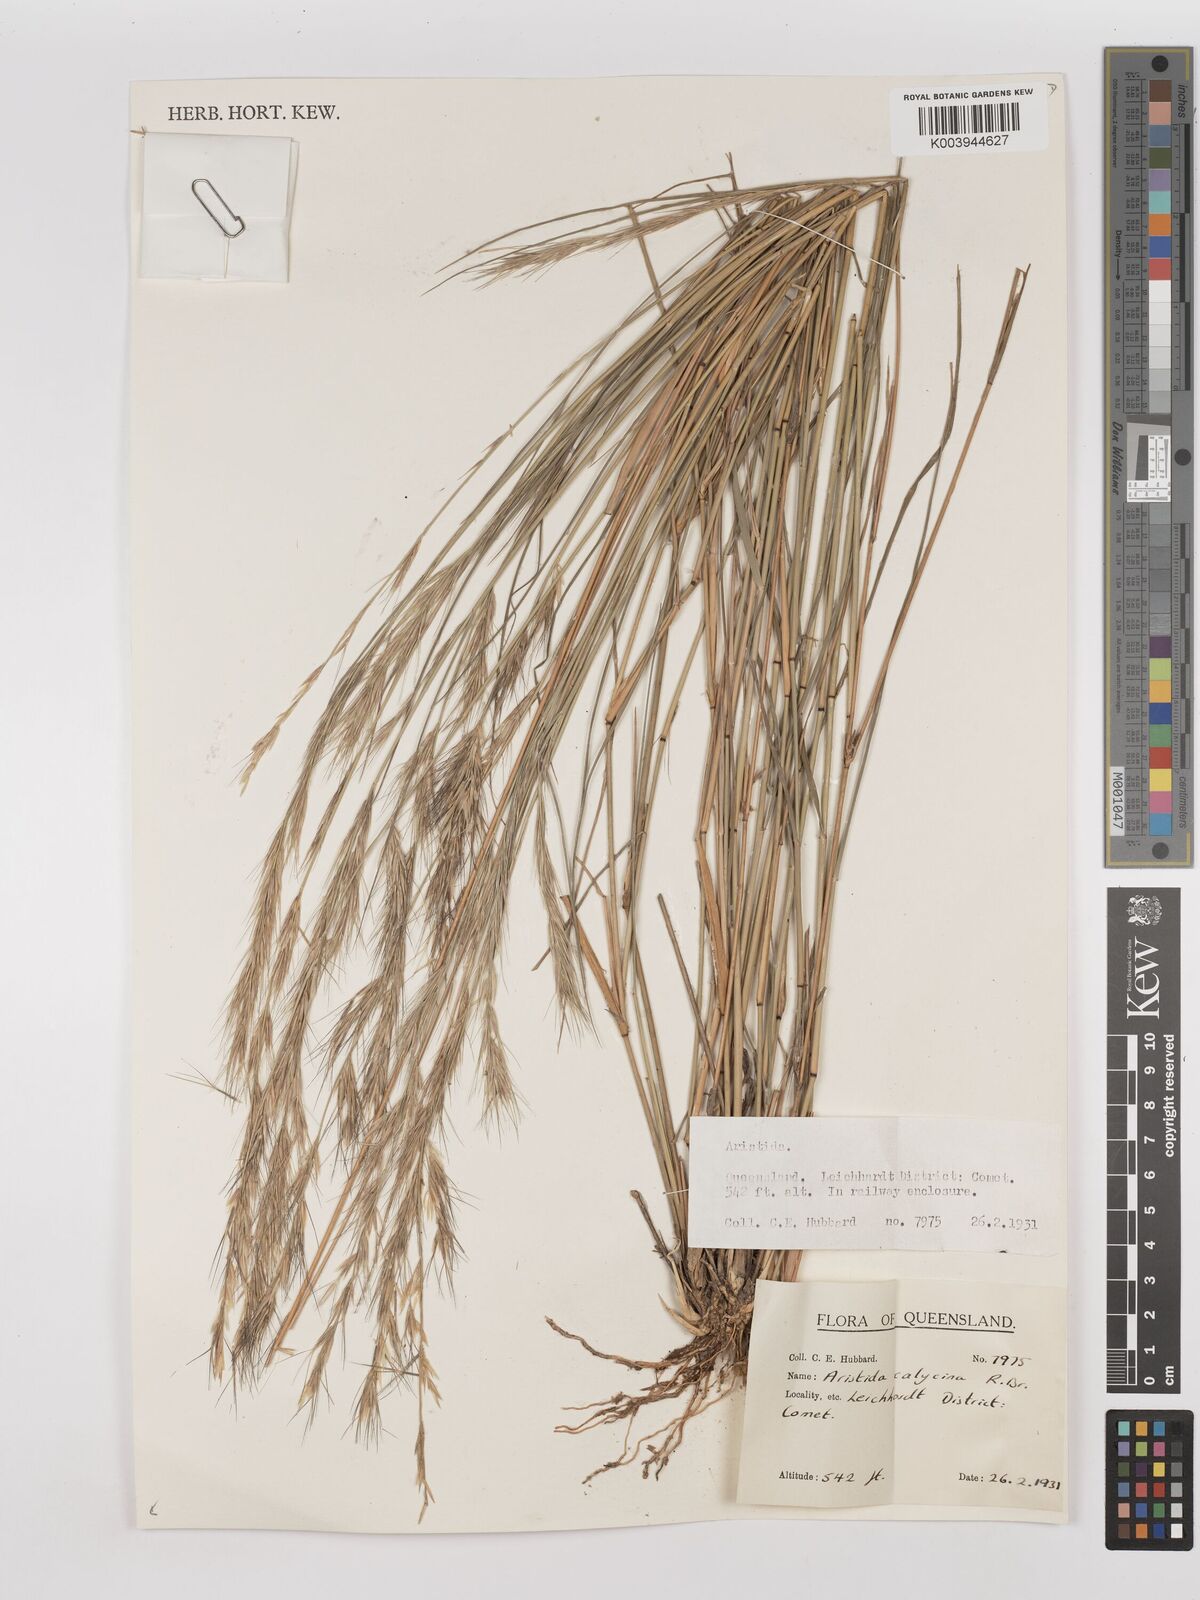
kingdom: Plantae
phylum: Tracheophyta
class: Liliopsida
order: Poales
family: Poaceae
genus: Aristida
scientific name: Aristida calycina
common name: Dark wire grass
